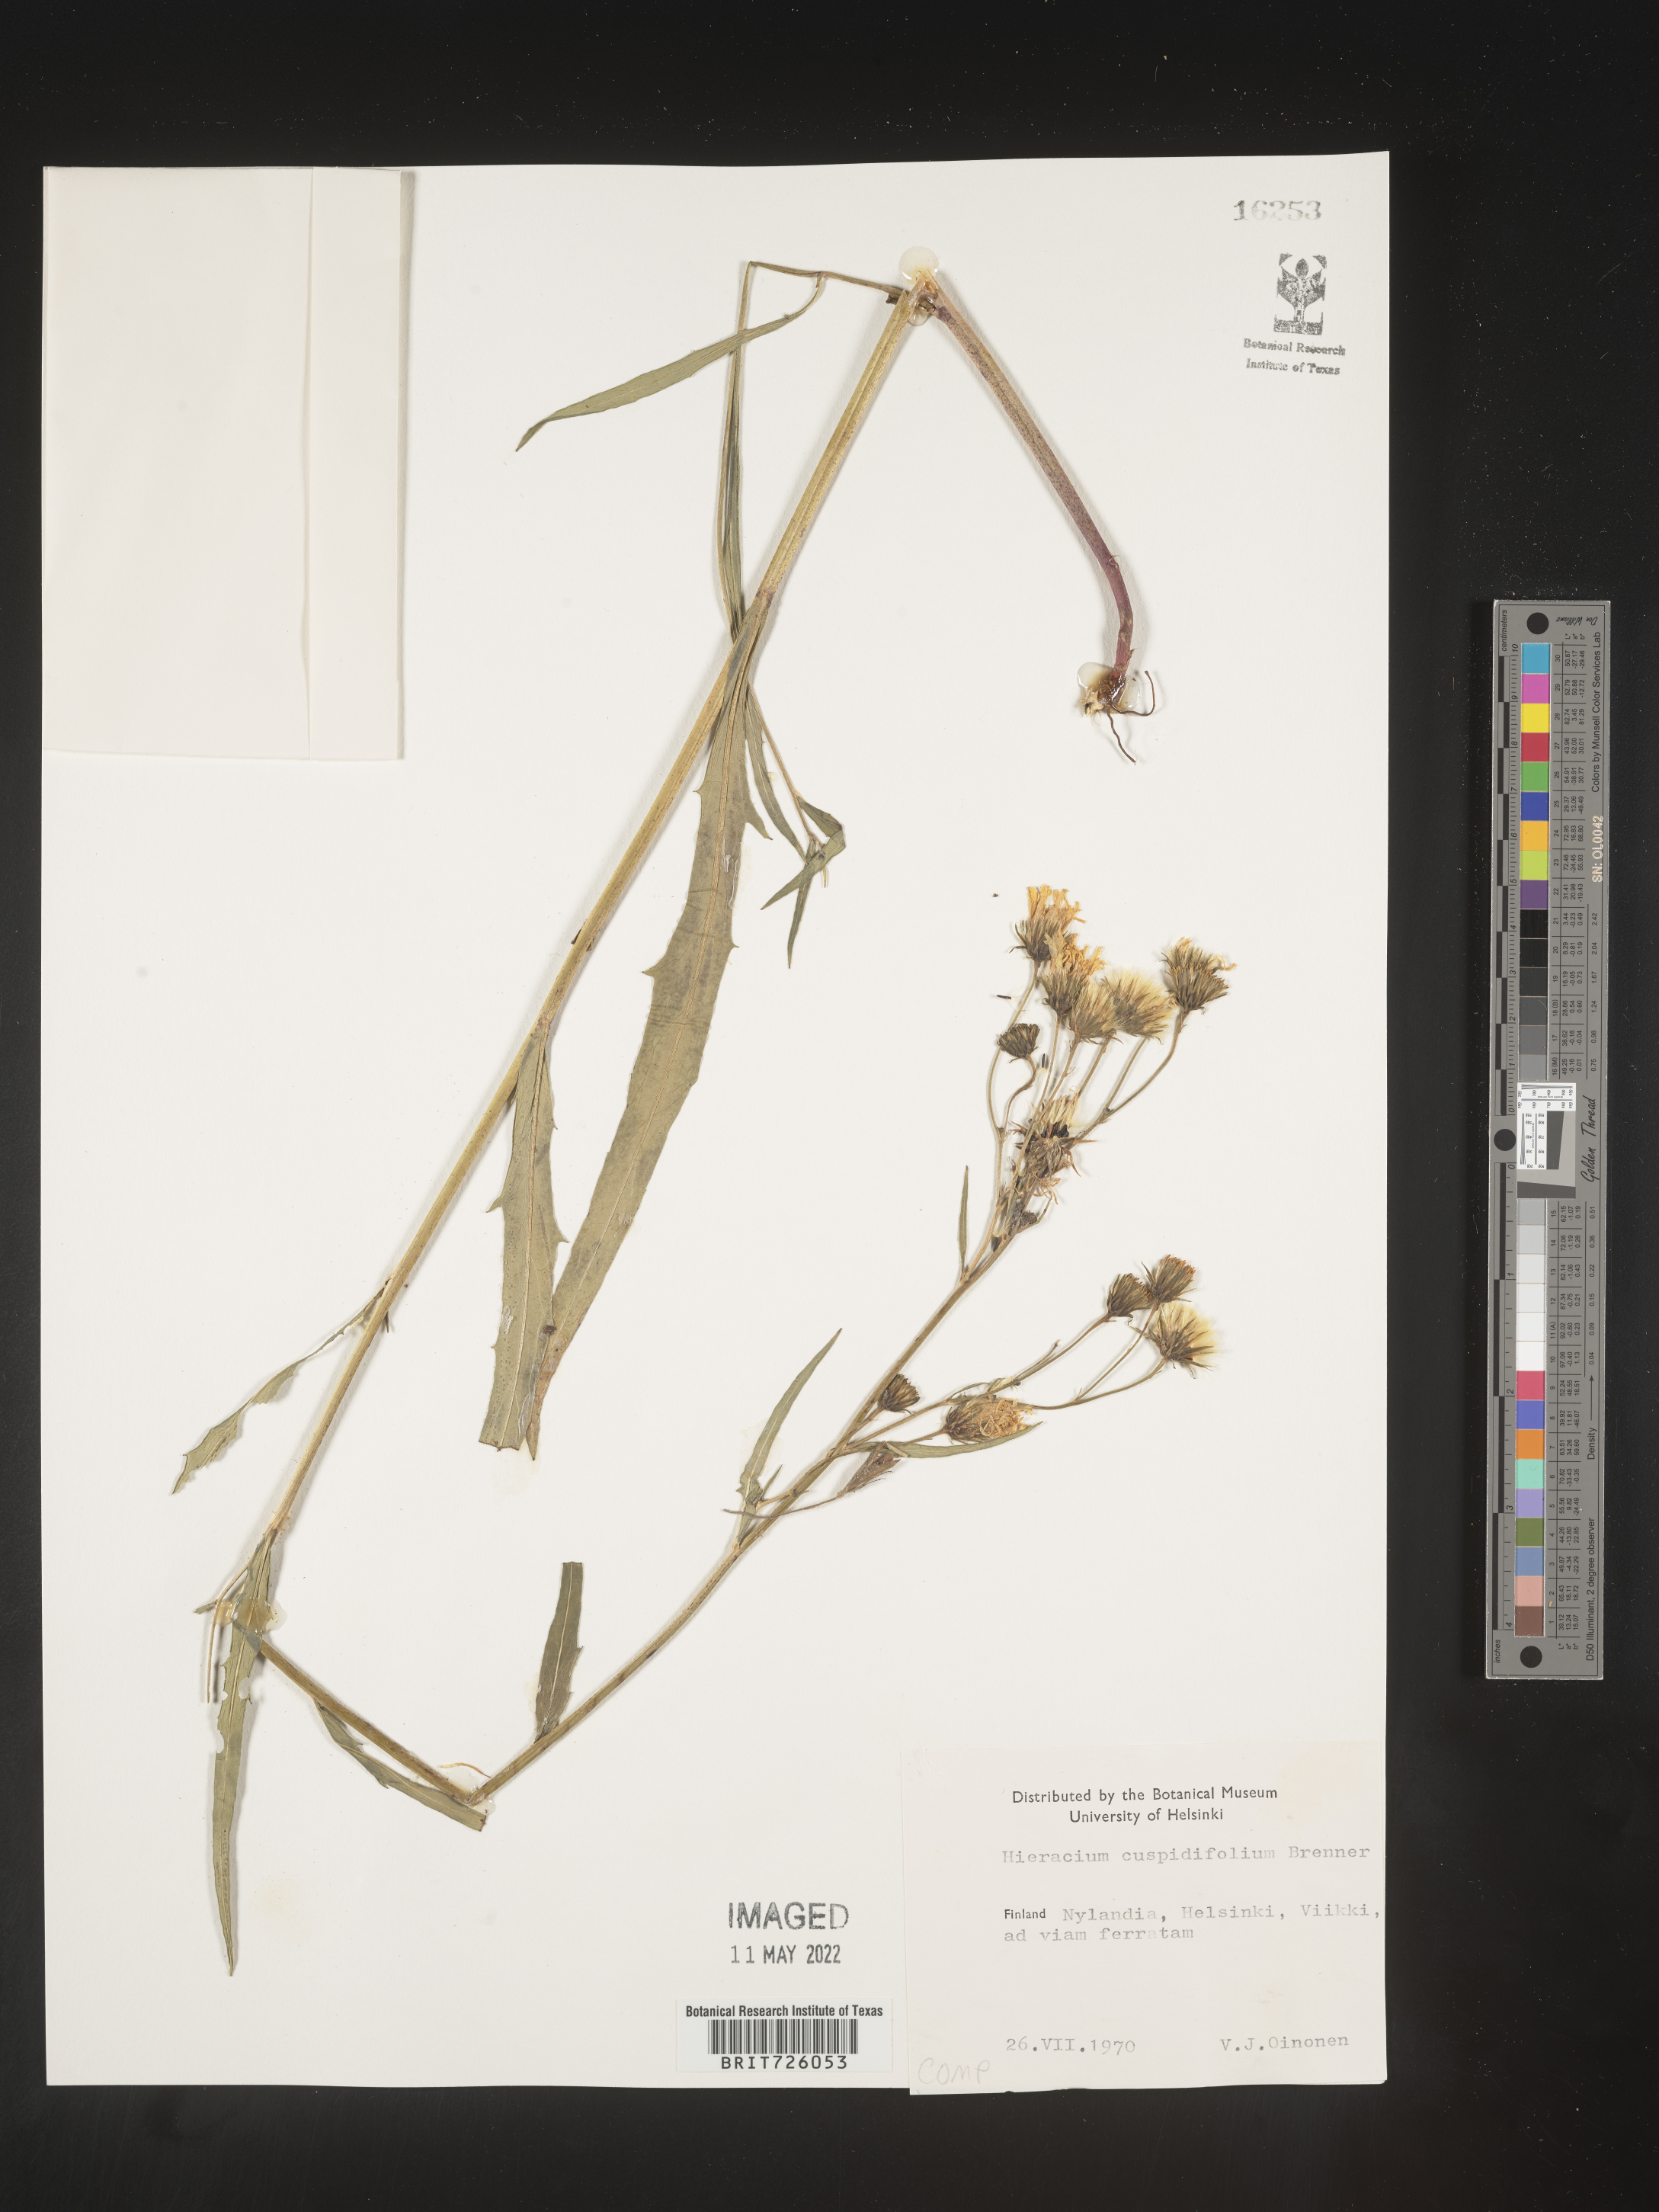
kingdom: Plantae
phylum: Tracheophyta
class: Magnoliopsida
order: Asterales
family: Asteraceae
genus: Hieracium
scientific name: Hieracium
